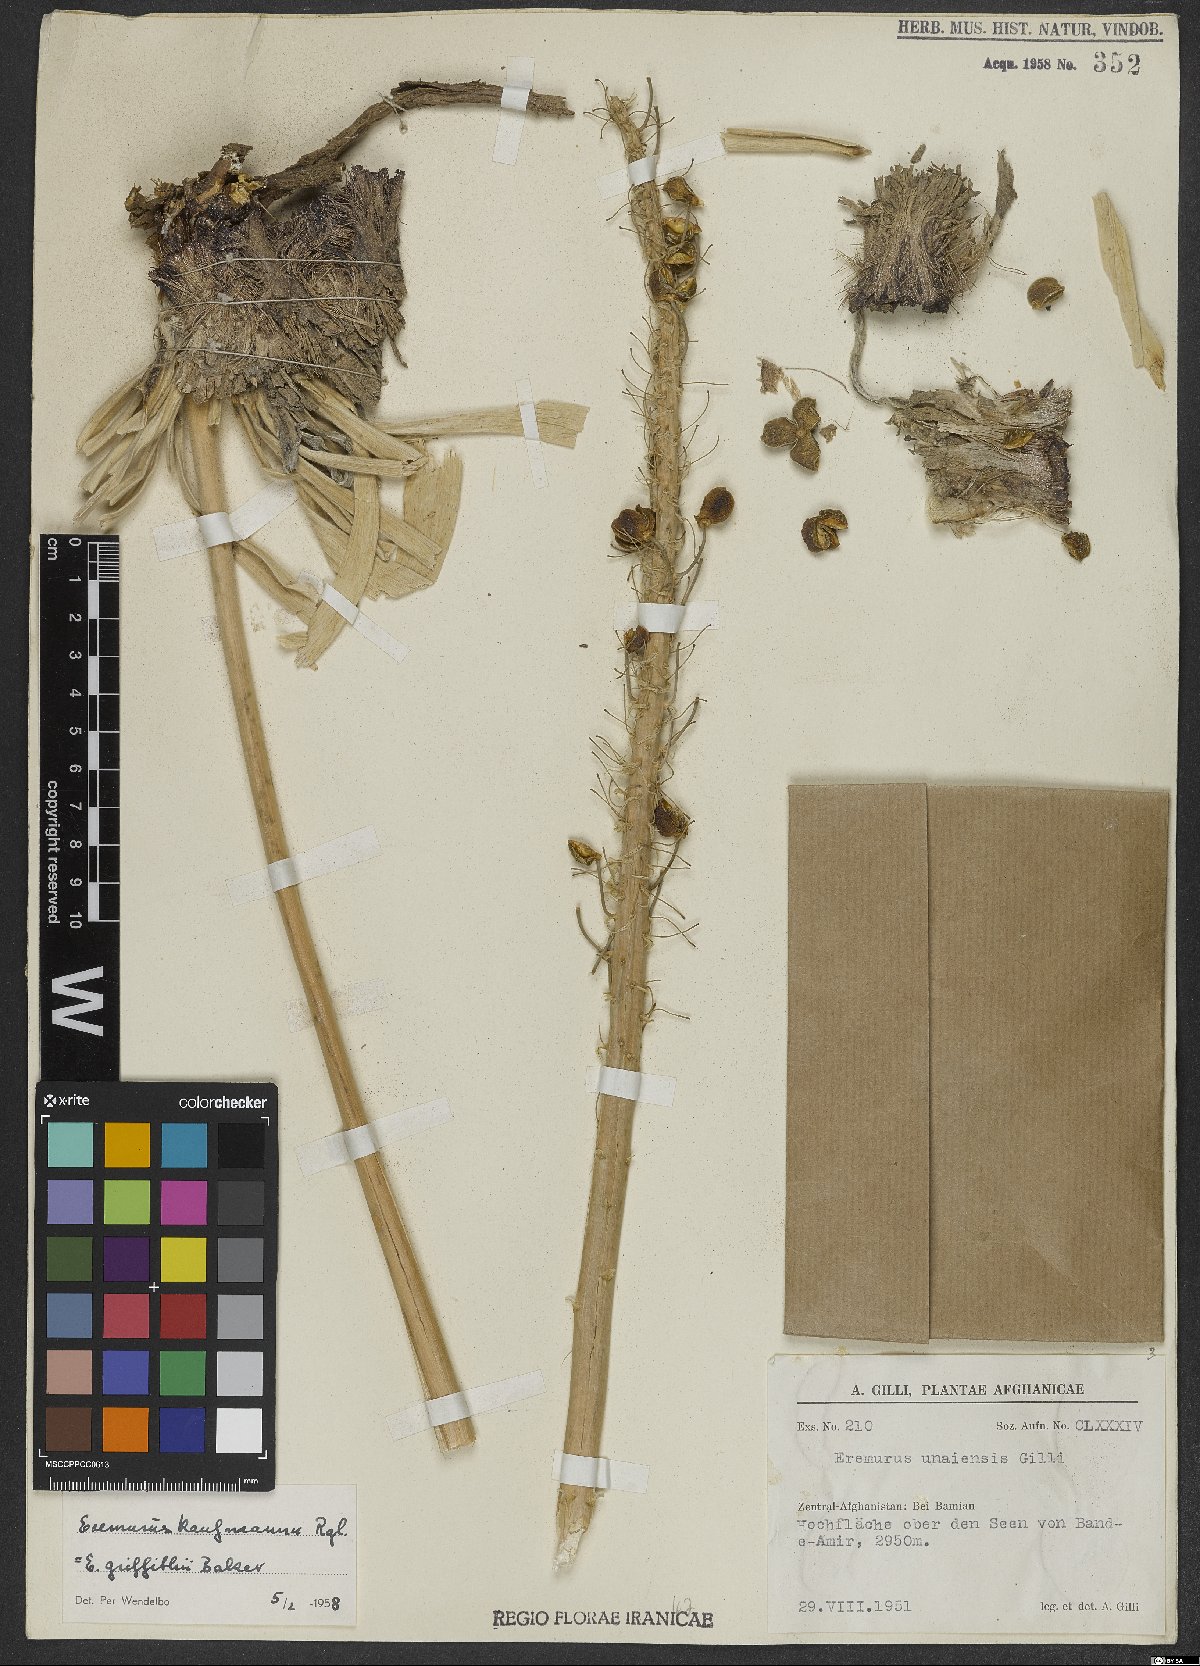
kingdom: Plantae
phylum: Tracheophyta
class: Liliopsida
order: Asparagales
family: Asphodelaceae
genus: Eremurus
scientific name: Eremurus kaufmannii
